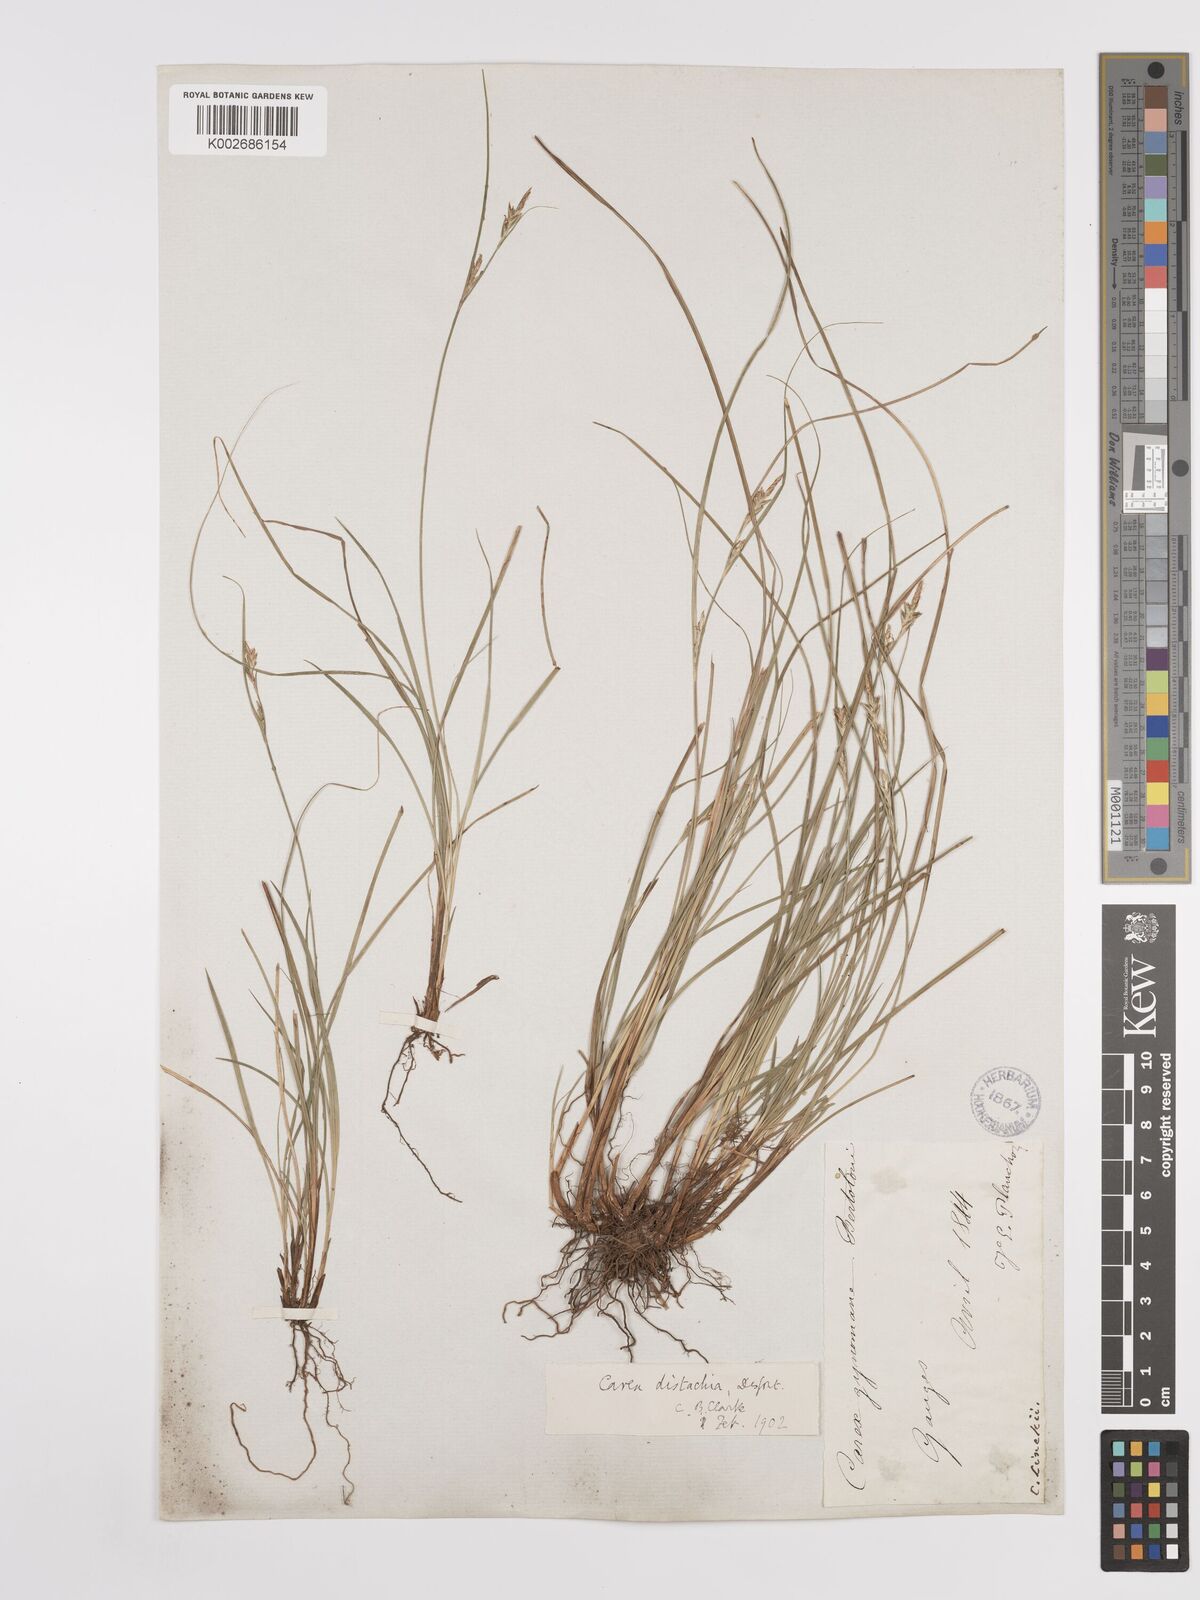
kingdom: Plantae
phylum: Tracheophyta
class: Liliopsida
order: Poales
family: Cyperaceae
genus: Carex
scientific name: Carex distachya
